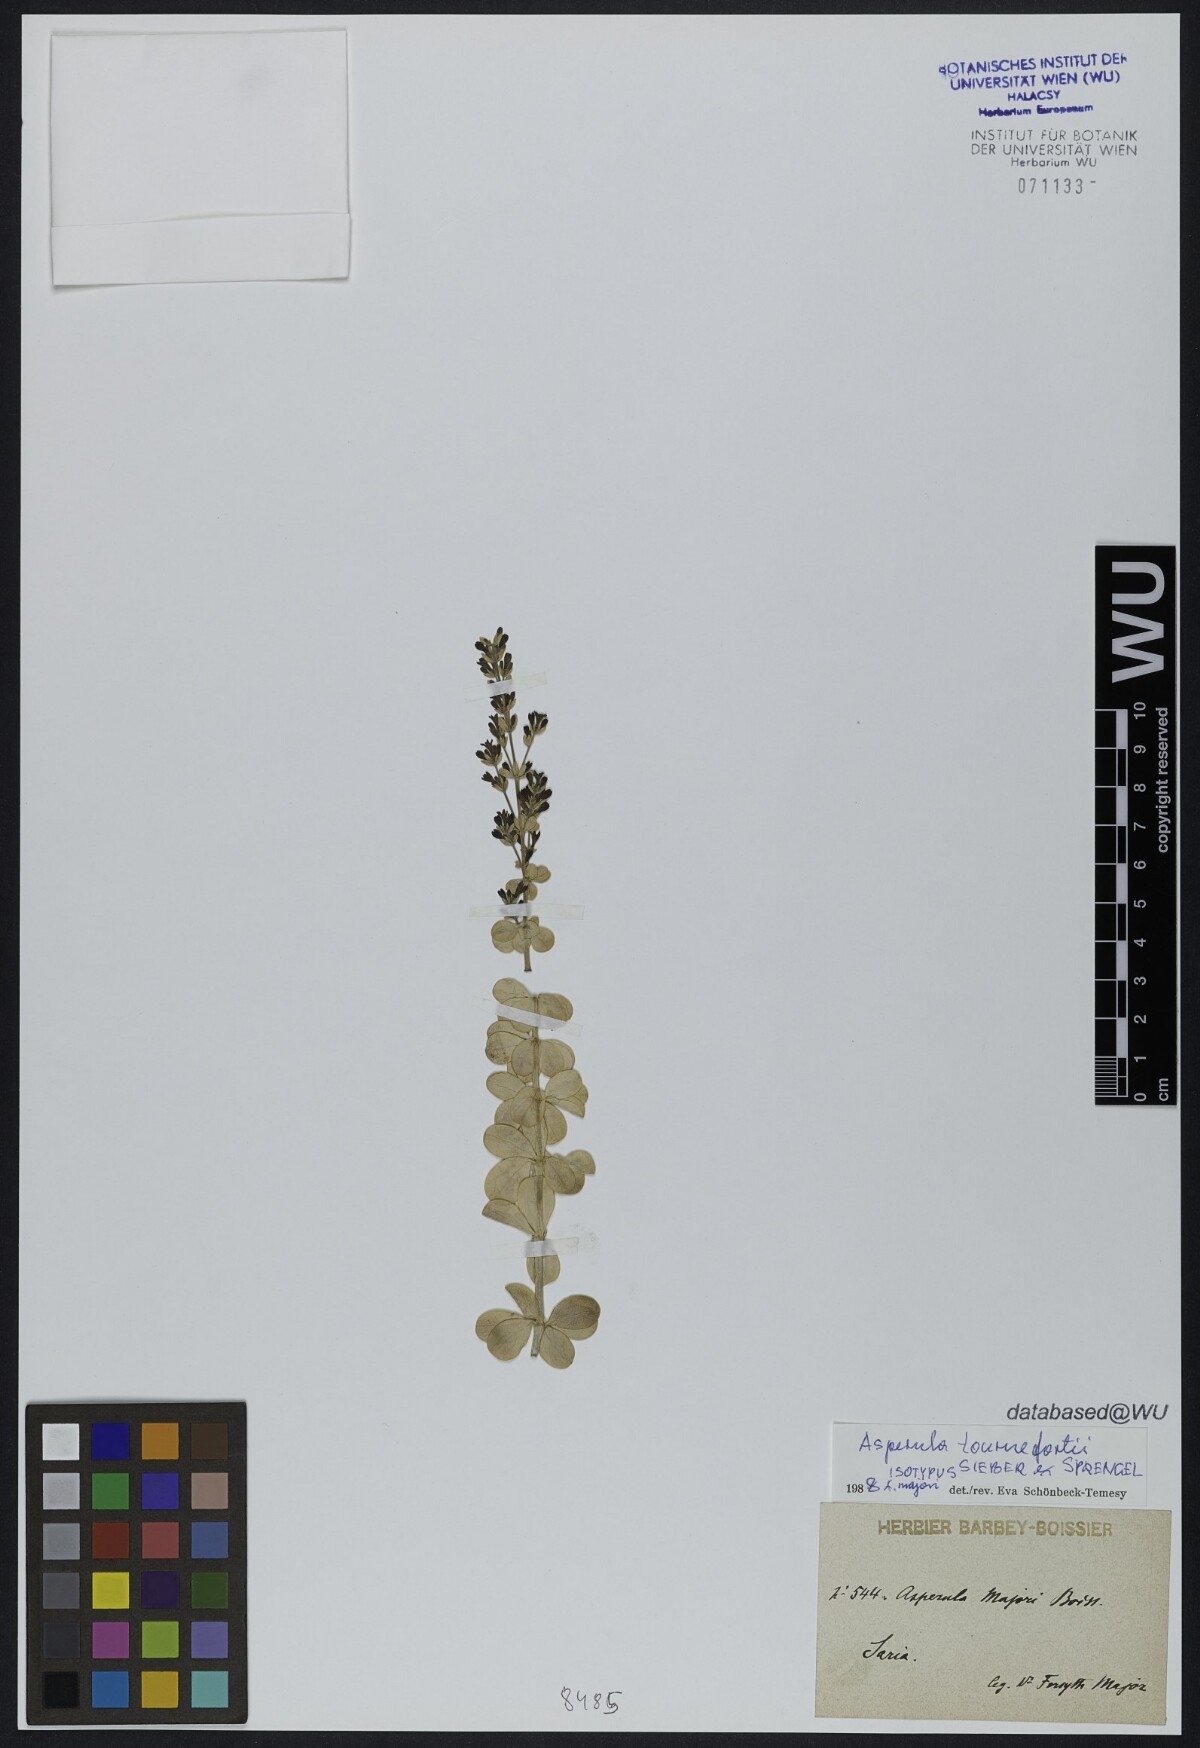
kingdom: Plantae
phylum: Tracheophyta
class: Magnoliopsida
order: Gentianales
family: Rubiaceae
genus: Thliphthisa
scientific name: Thliphthisa tournefortii
